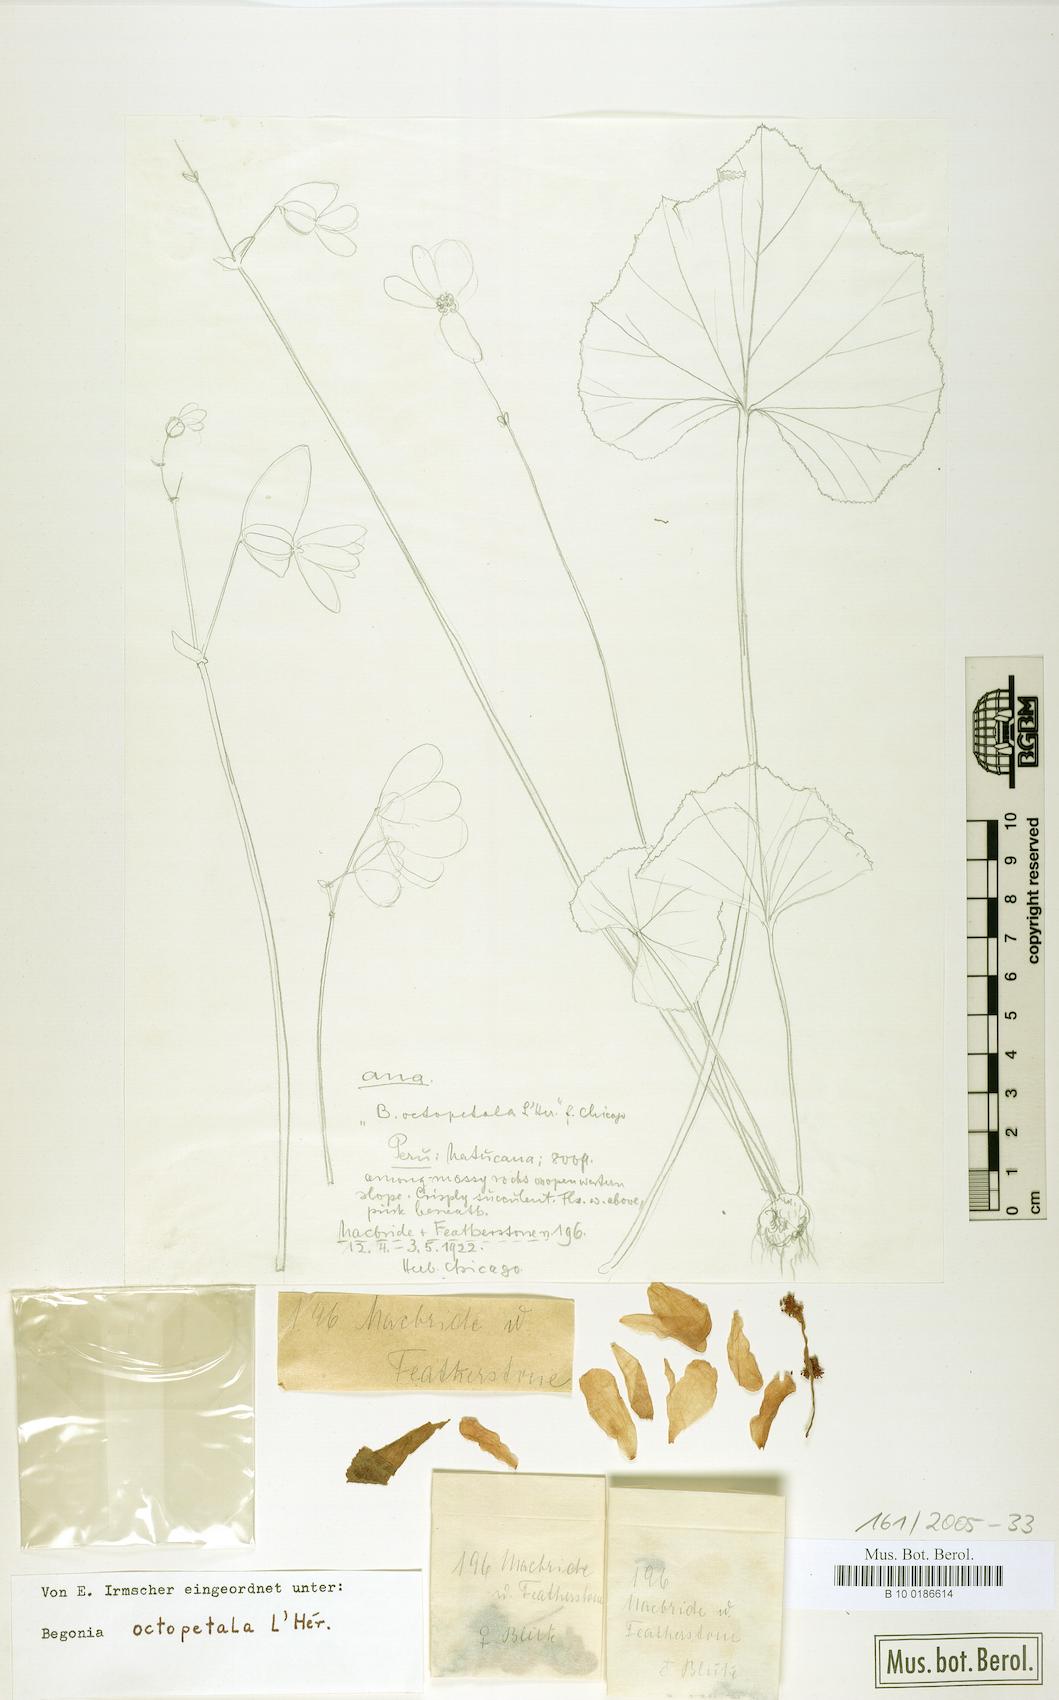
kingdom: Plantae
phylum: Tracheophyta
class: Magnoliopsida
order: Cucurbitales
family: Begoniaceae
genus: Begonia
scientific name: Begonia octopetala
